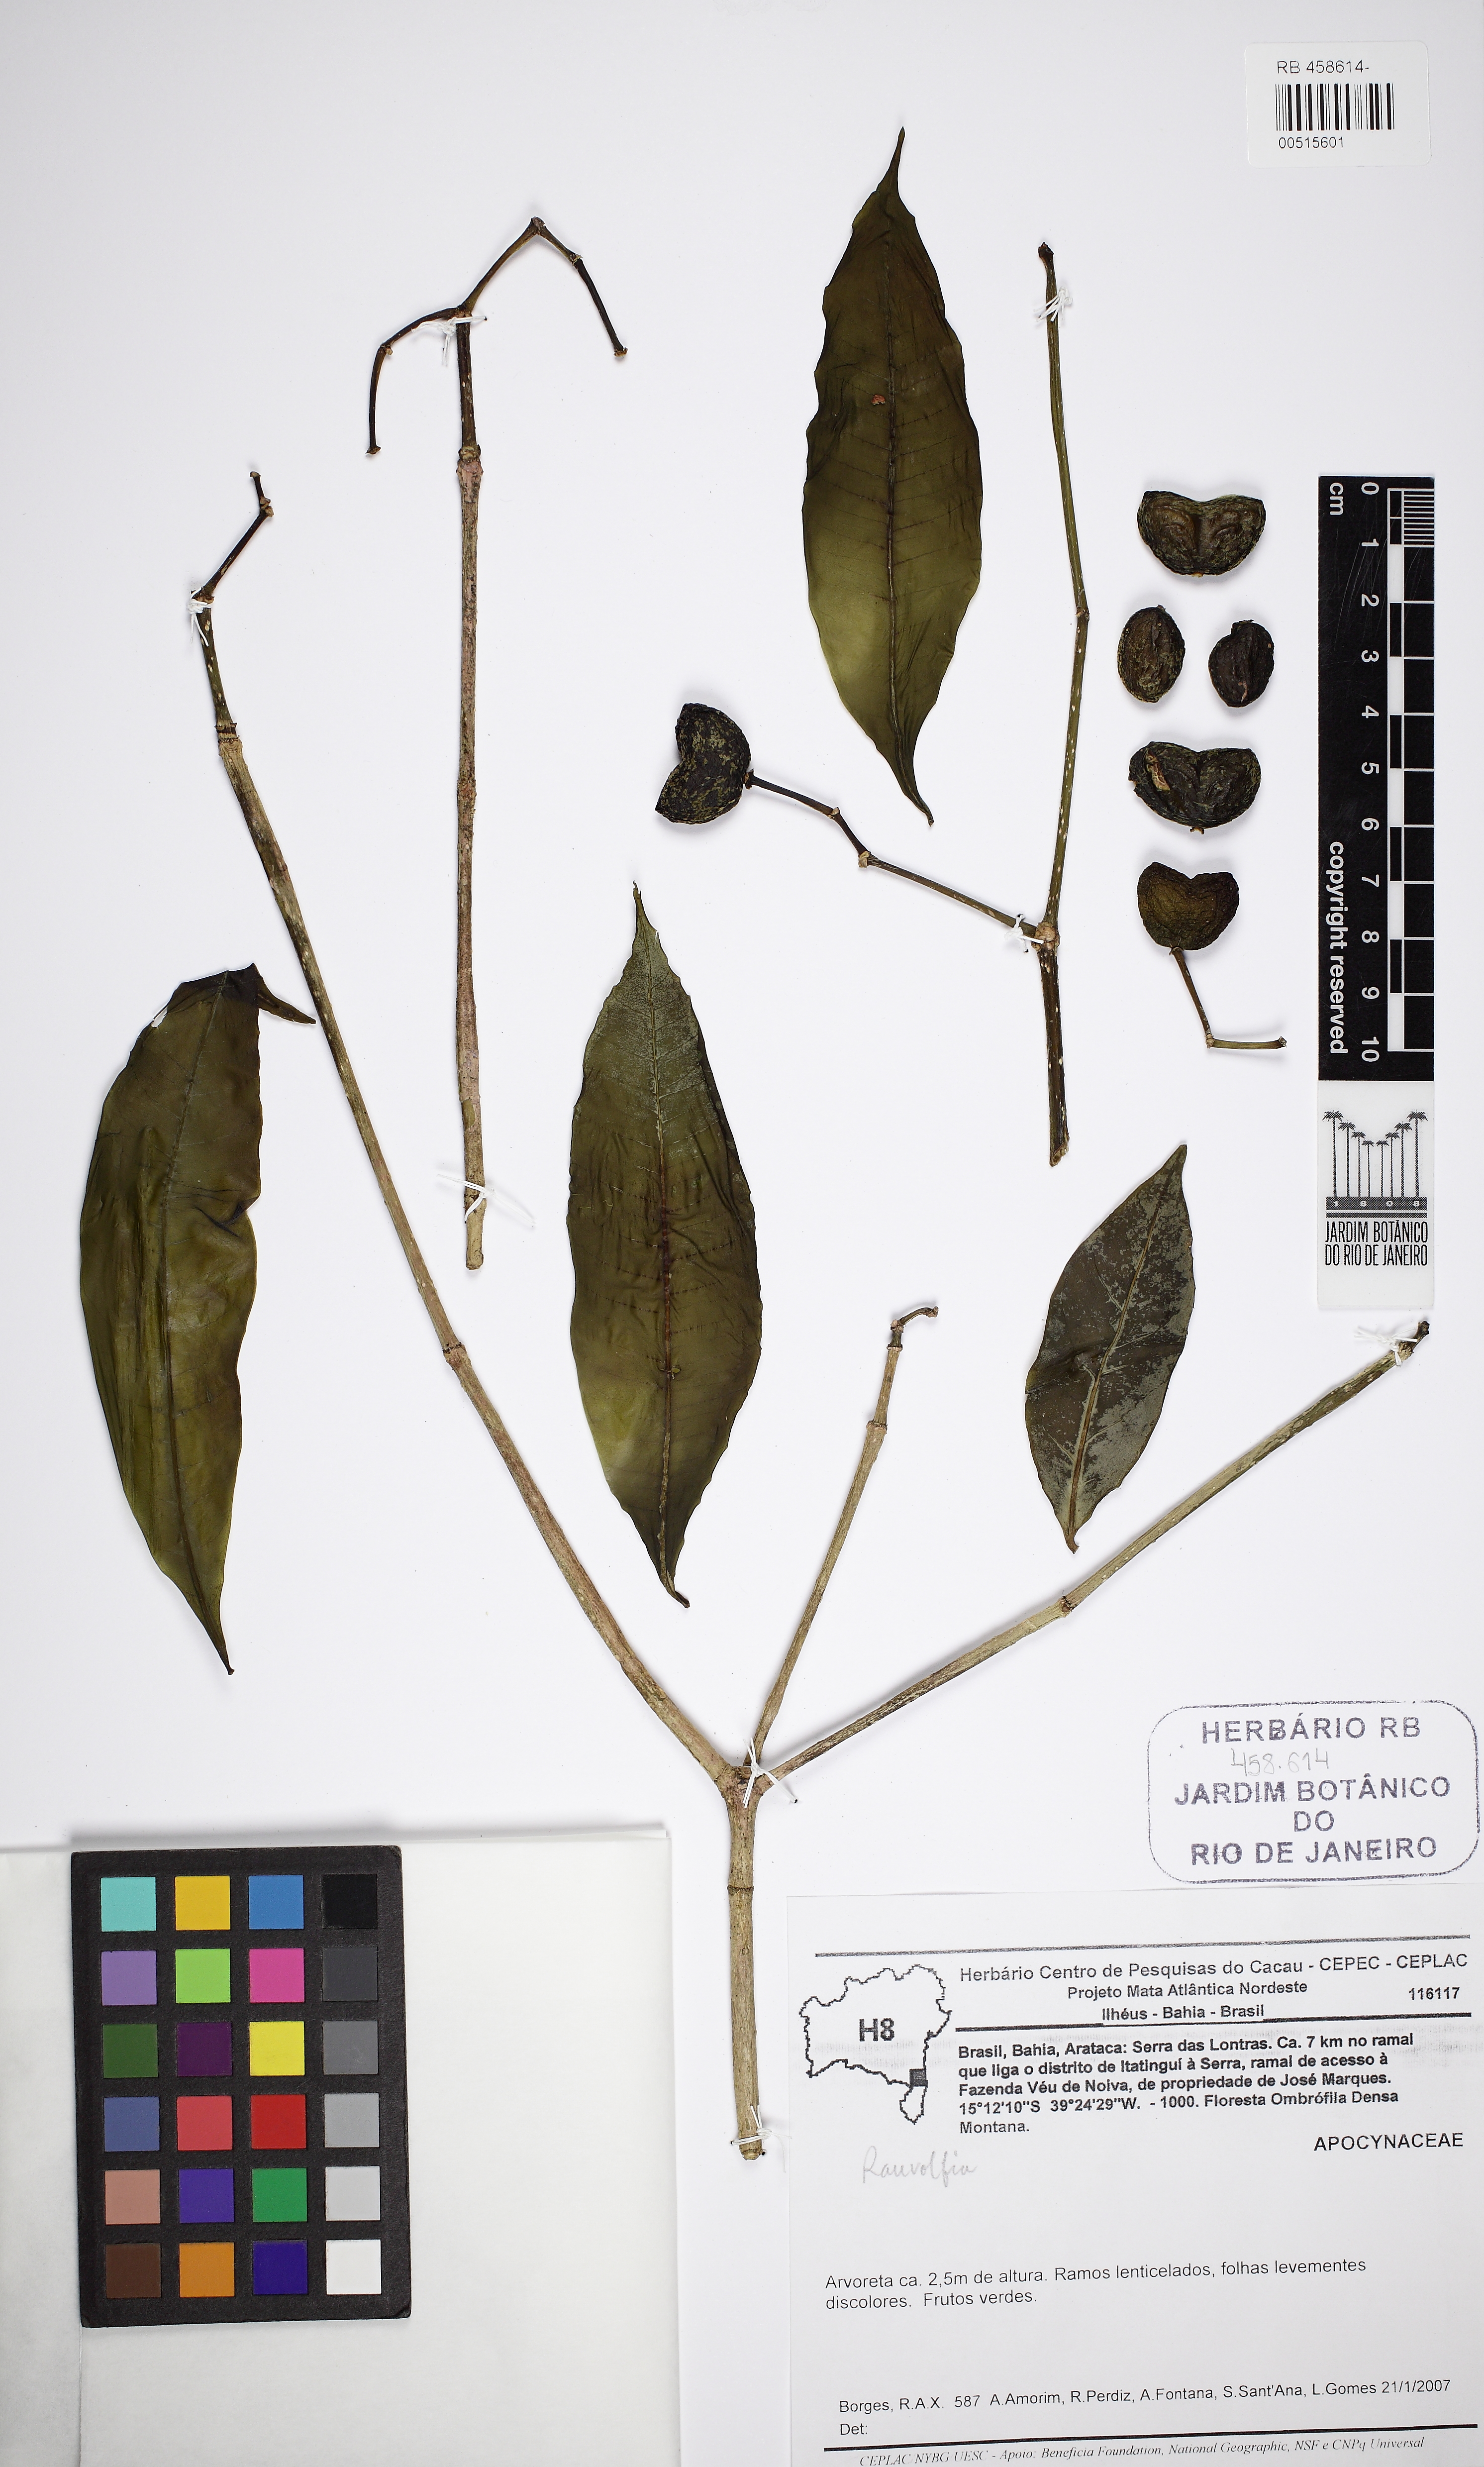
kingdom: Plantae
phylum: Tracheophyta
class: Magnoliopsida
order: Gentianales
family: Apocynaceae
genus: Rauvolfia
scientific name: Rauvolfia
